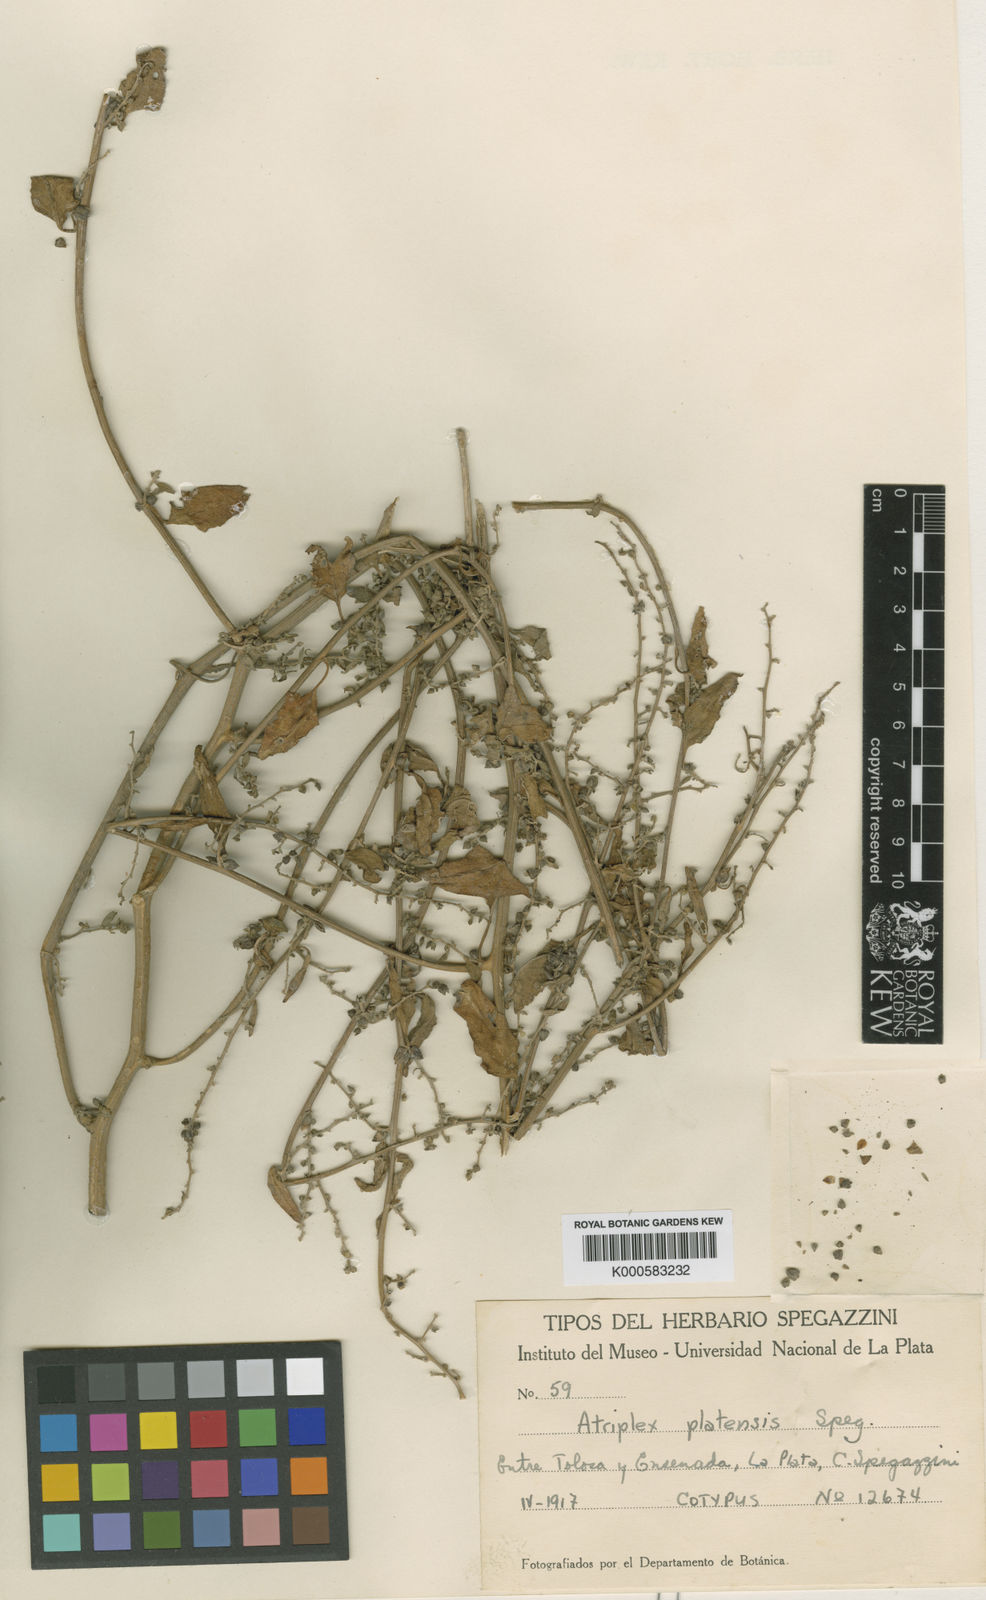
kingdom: Plantae
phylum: Tracheophyta
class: Magnoliopsida
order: Caryophyllales
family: Amaranthaceae
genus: Atriplex
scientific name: Atriplex prostrata
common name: Spear-leaved orache
